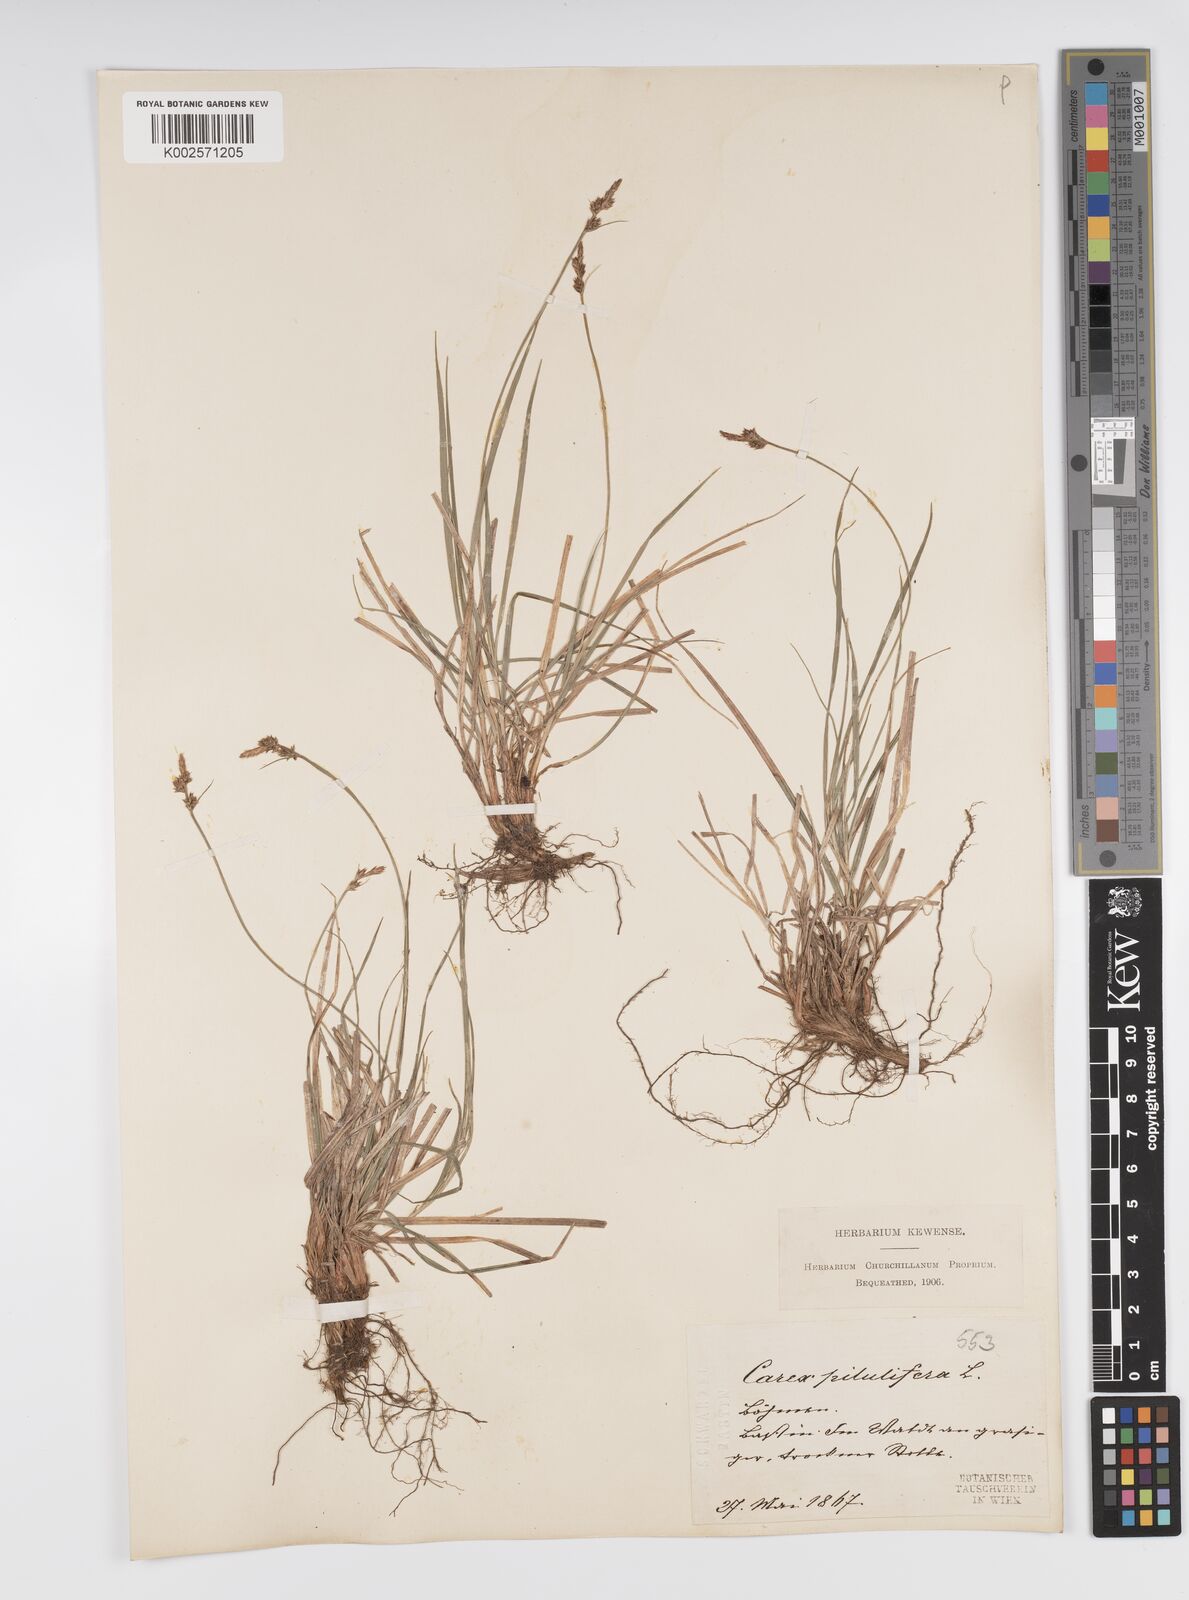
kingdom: Plantae
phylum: Tracheophyta
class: Liliopsida
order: Poales
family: Cyperaceae
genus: Carex
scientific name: Carex pilulifera
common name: Pill sedge
